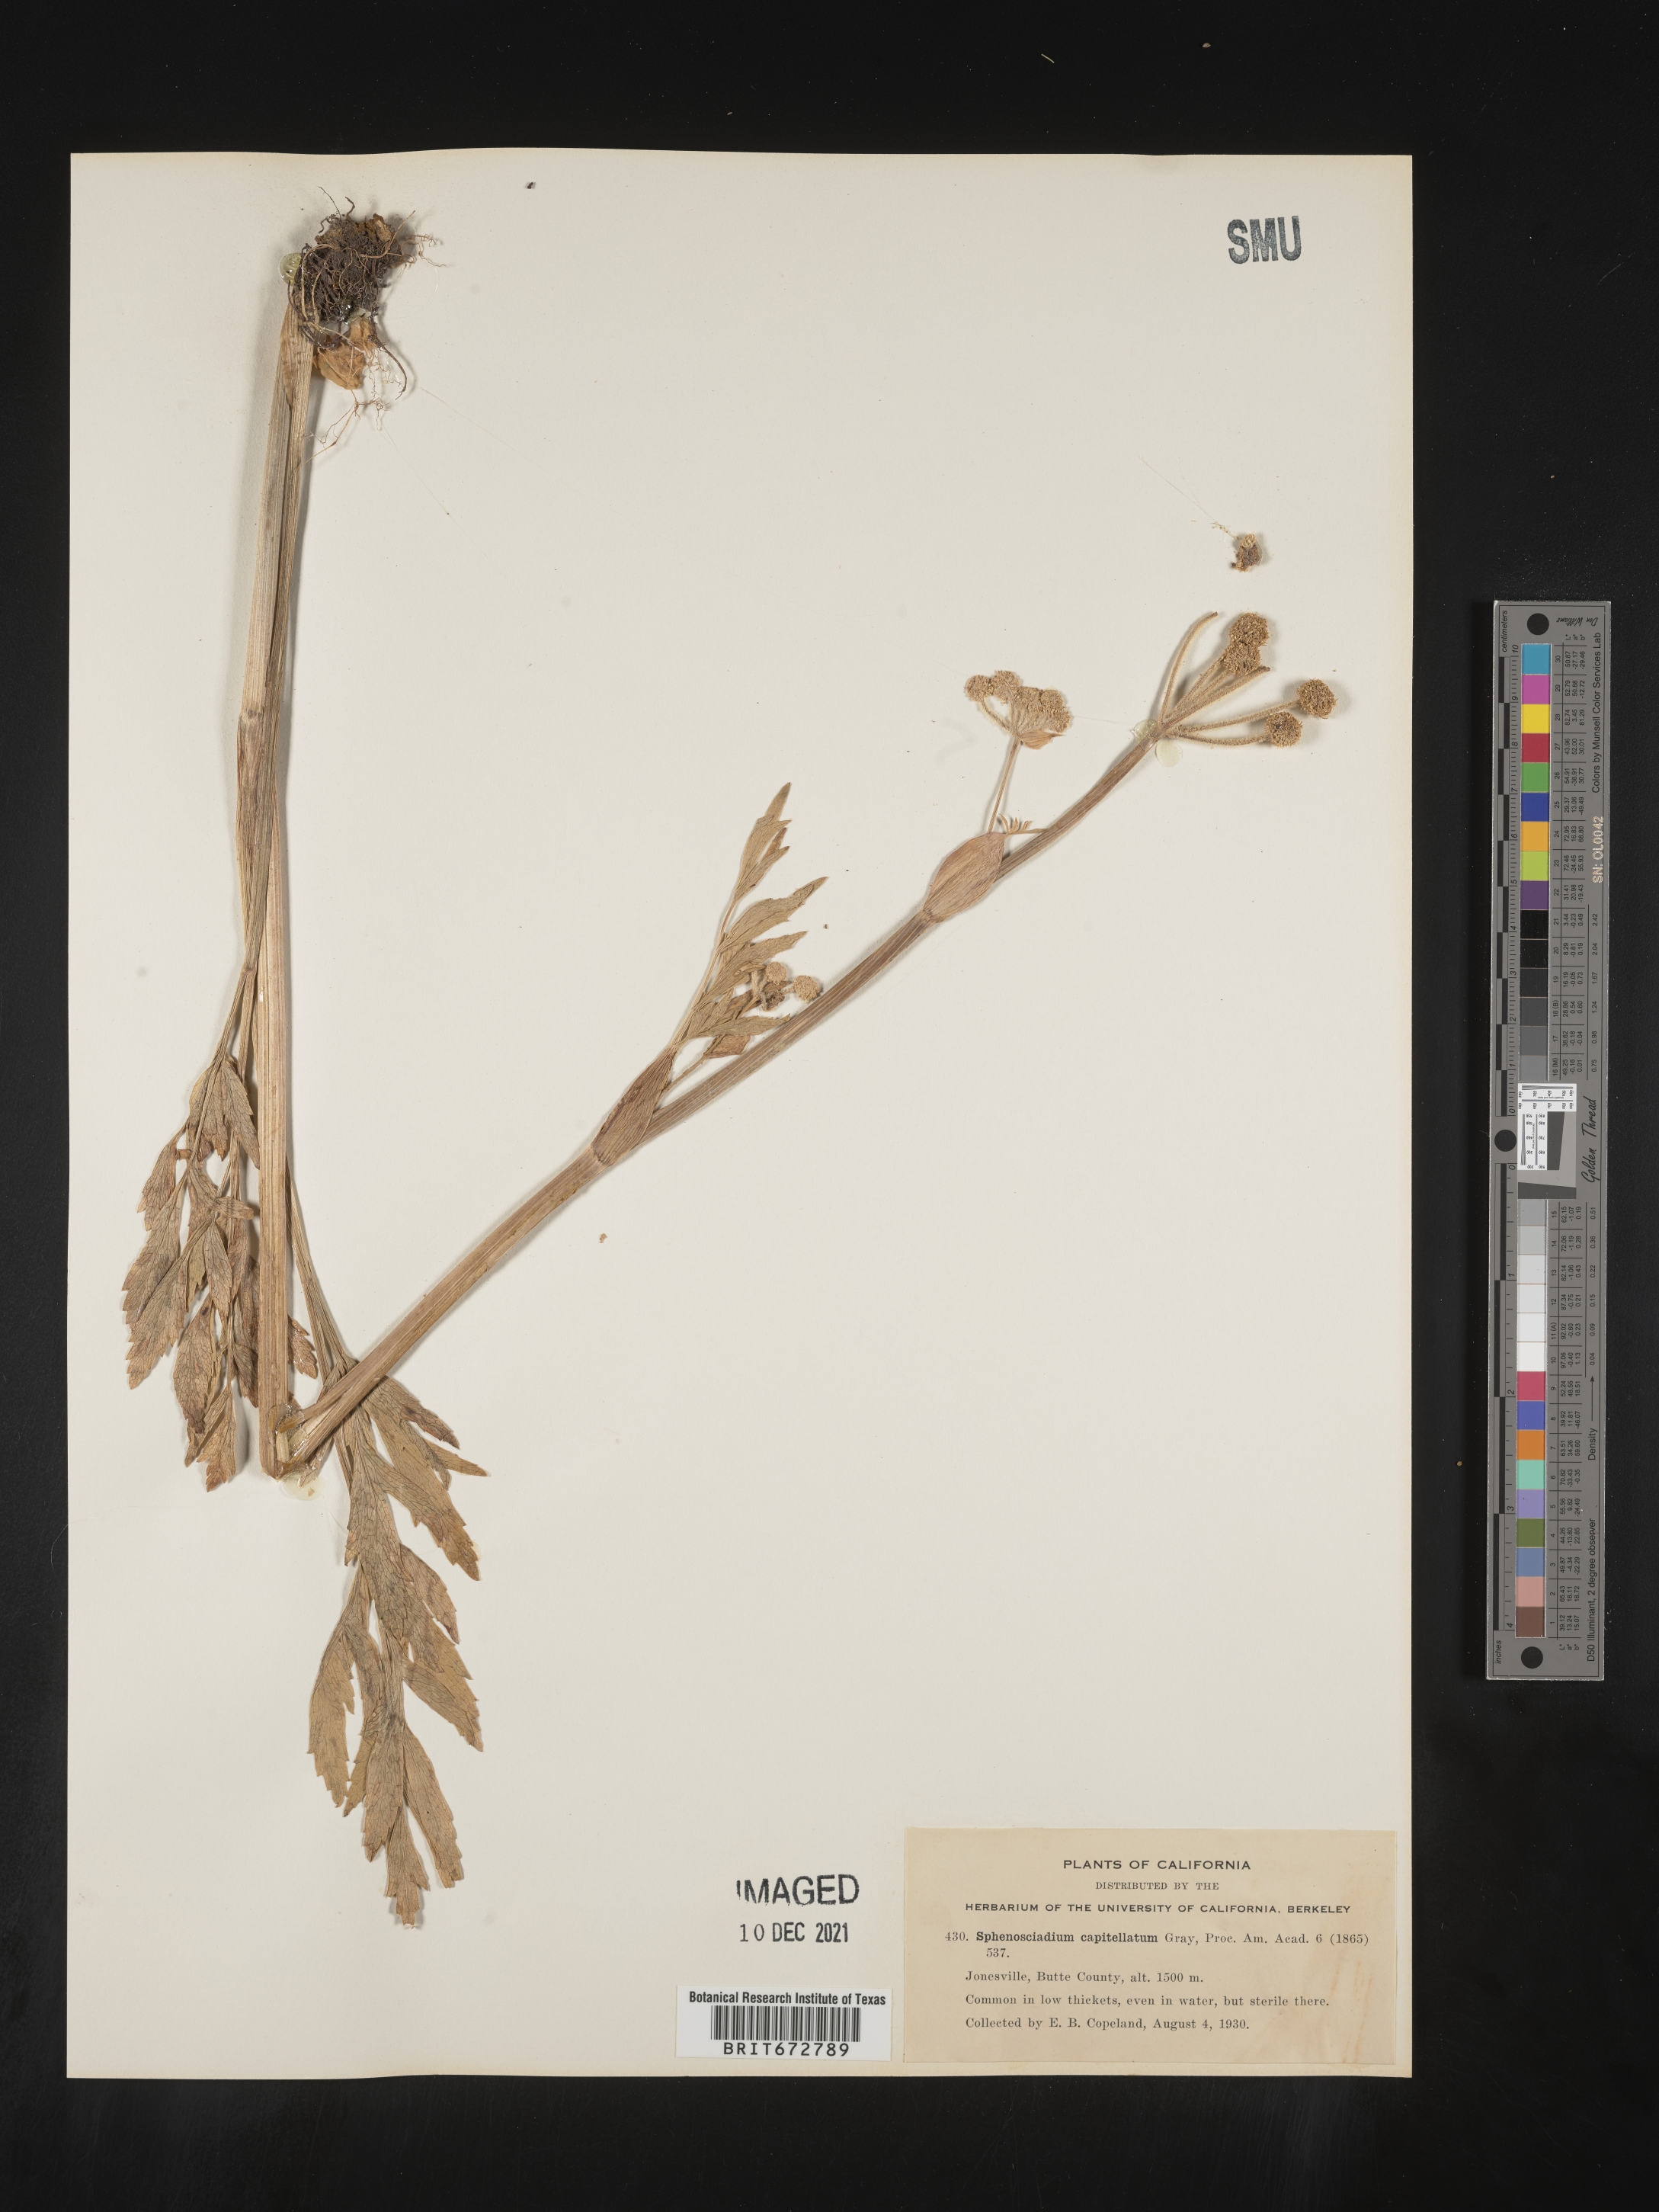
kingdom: Plantae
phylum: Tracheophyta
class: Magnoliopsida
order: Apiales
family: Apiaceae
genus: Angelica
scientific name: Angelica
